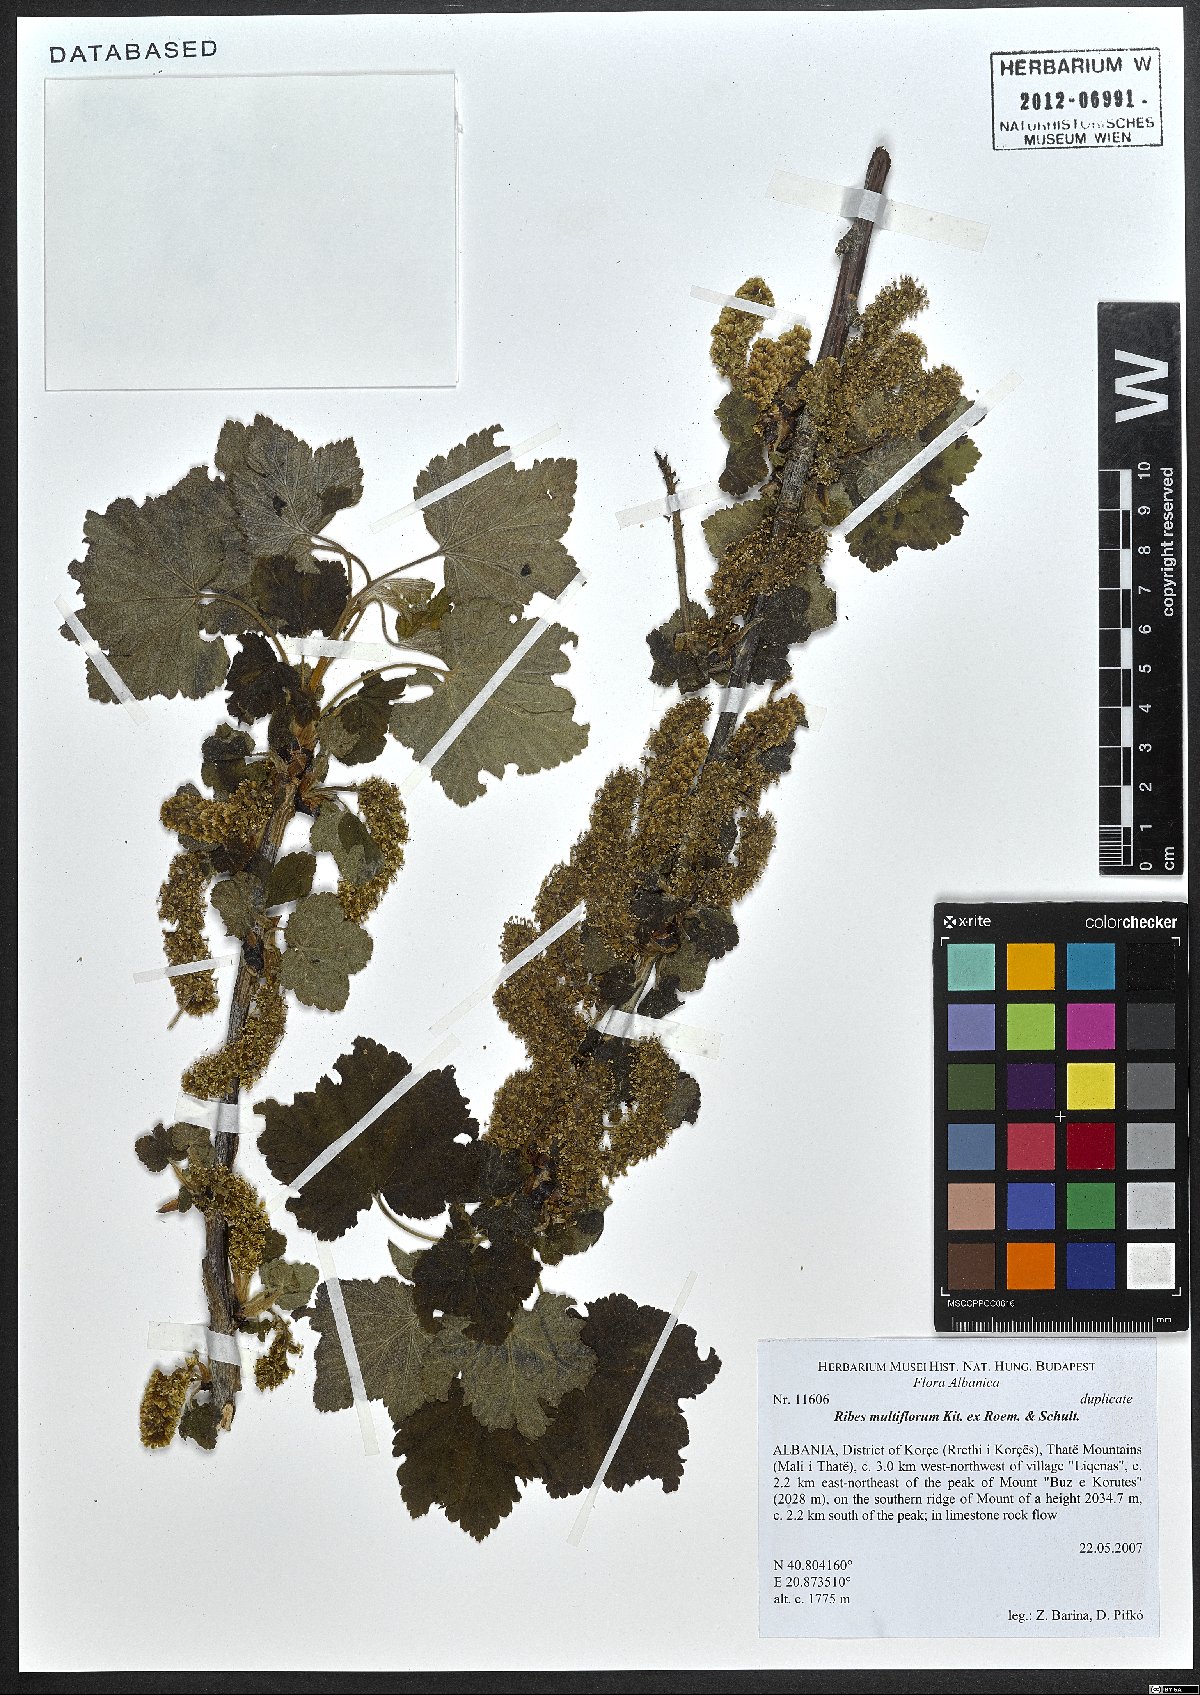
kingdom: Plantae
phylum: Tracheophyta
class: Magnoliopsida
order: Saxifragales
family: Grossulariaceae
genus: Ribes
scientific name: Ribes multiflorum
